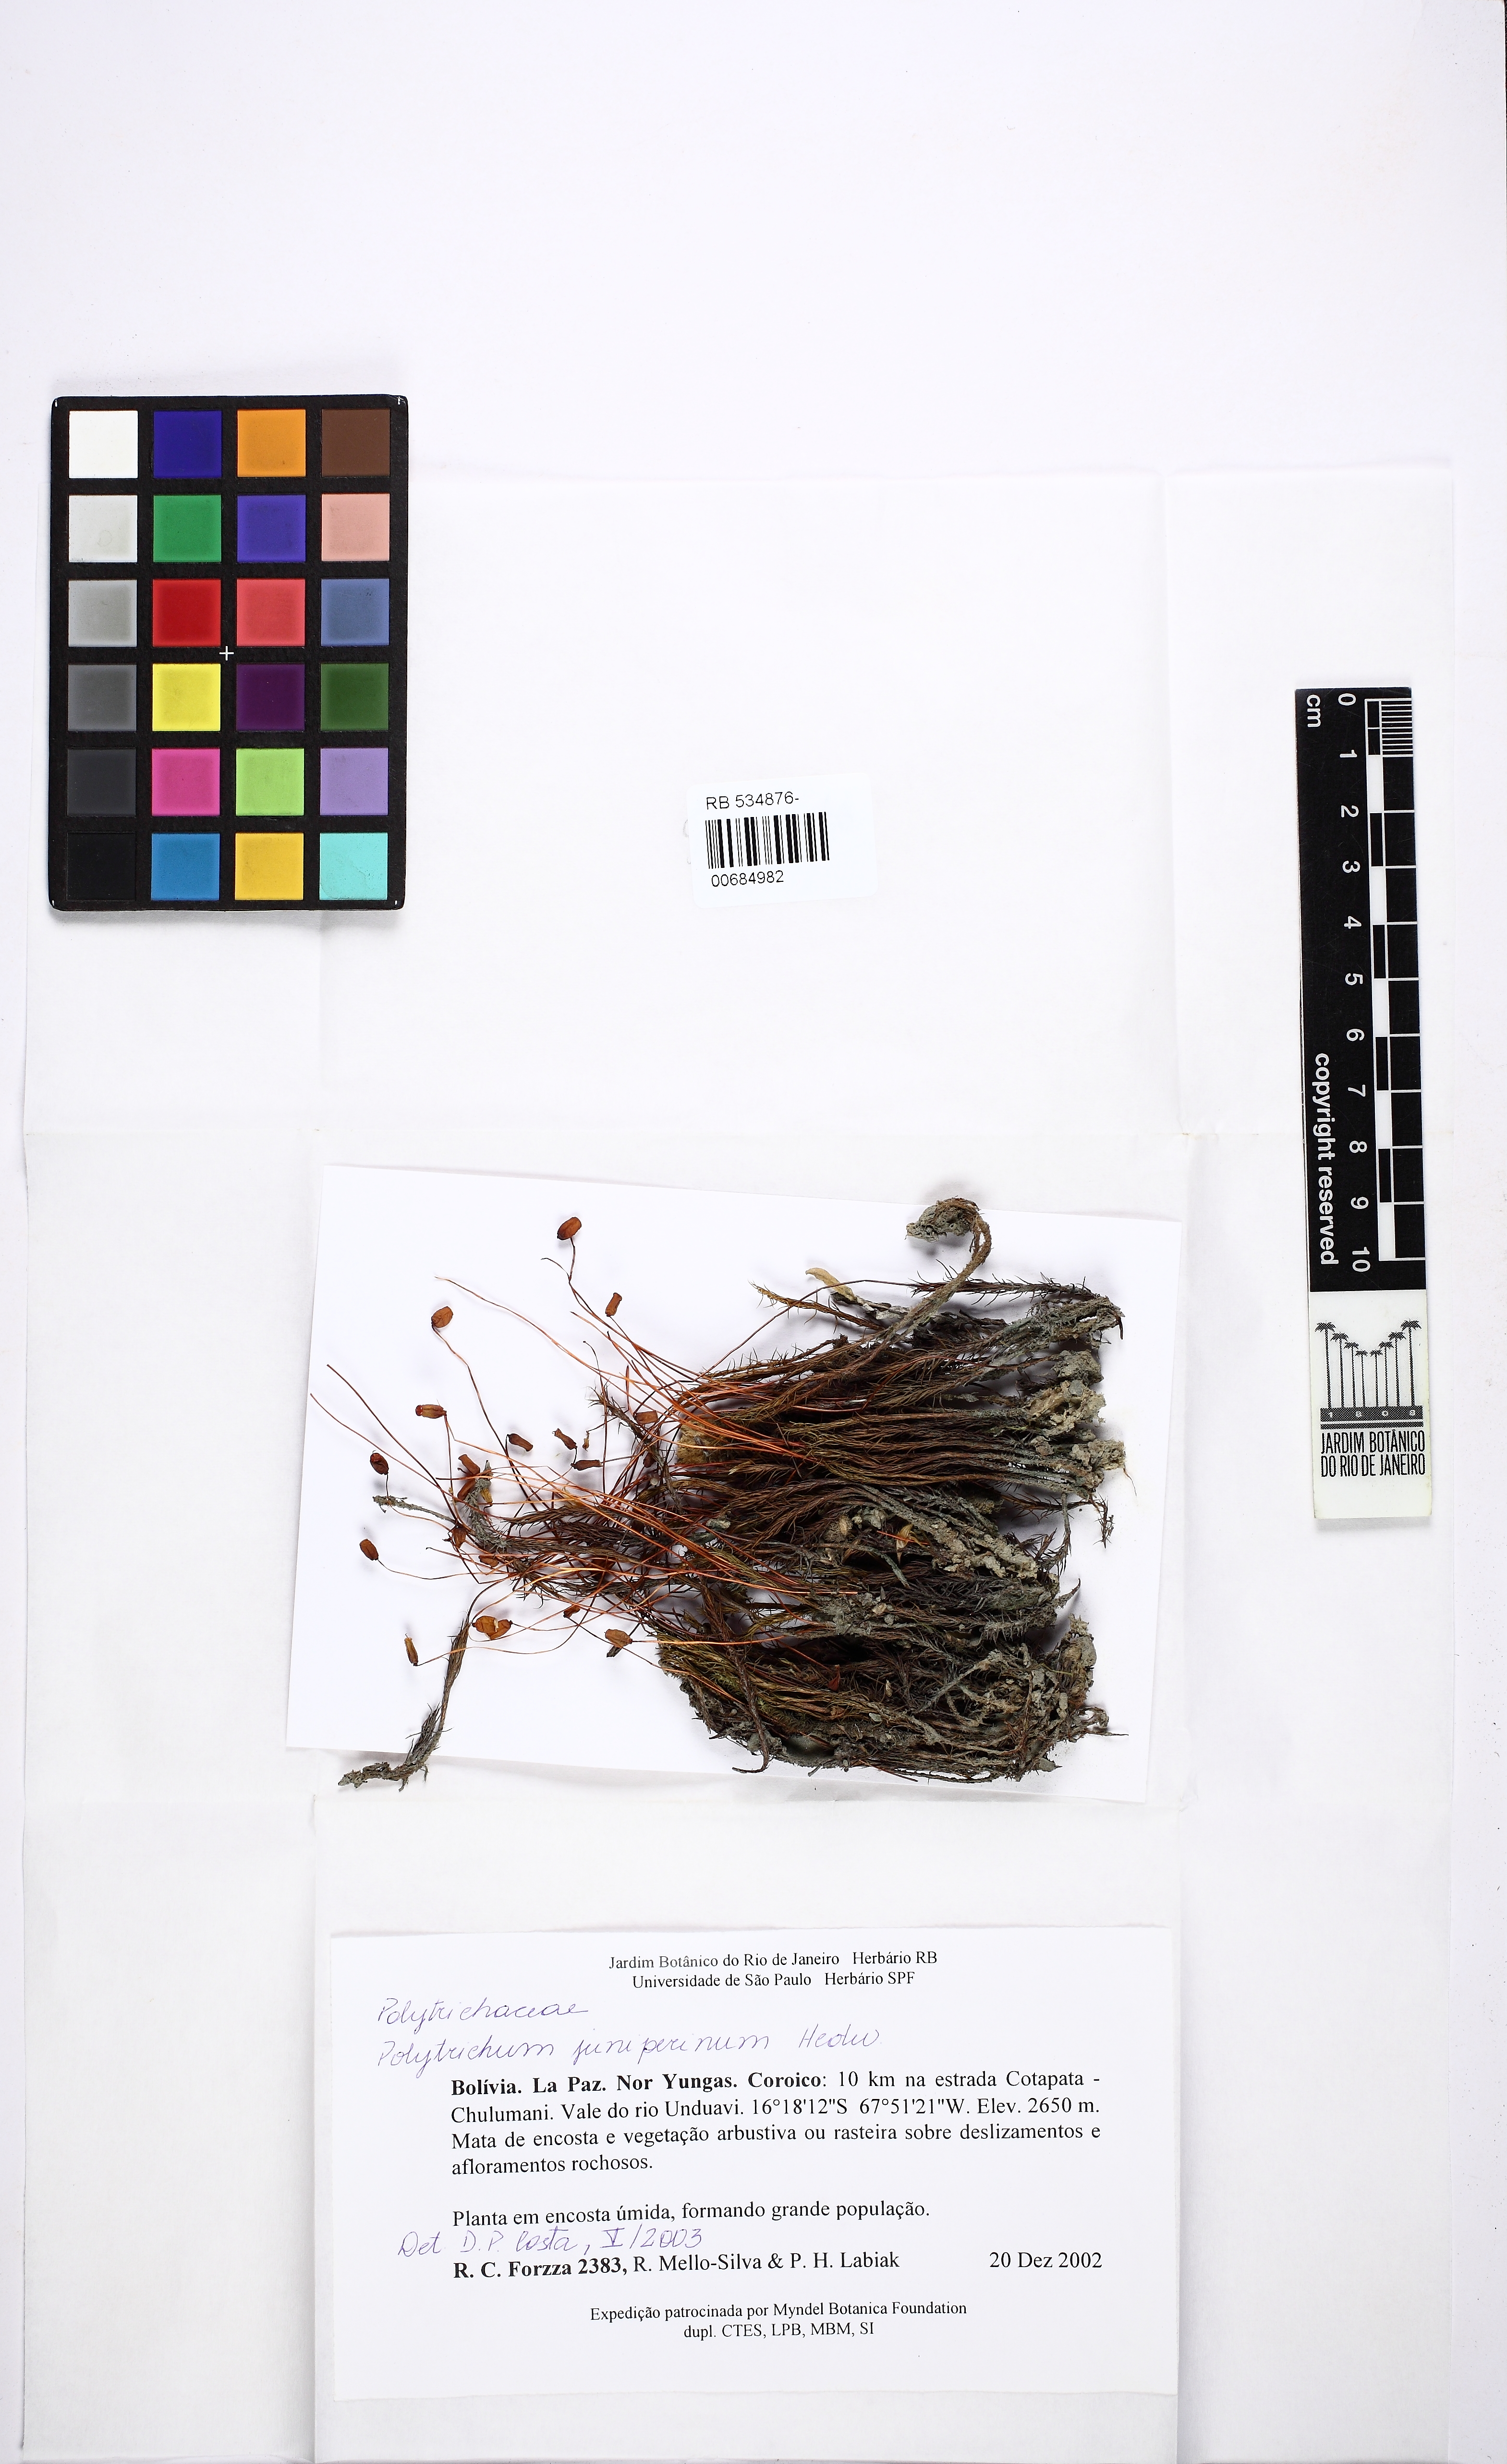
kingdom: Plantae
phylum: Bryophyta
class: Polytrichopsida
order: Polytrichales
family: Polytrichaceae
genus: Polytrichum
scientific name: Polytrichum juniperinum
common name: Juniper haircap moss
